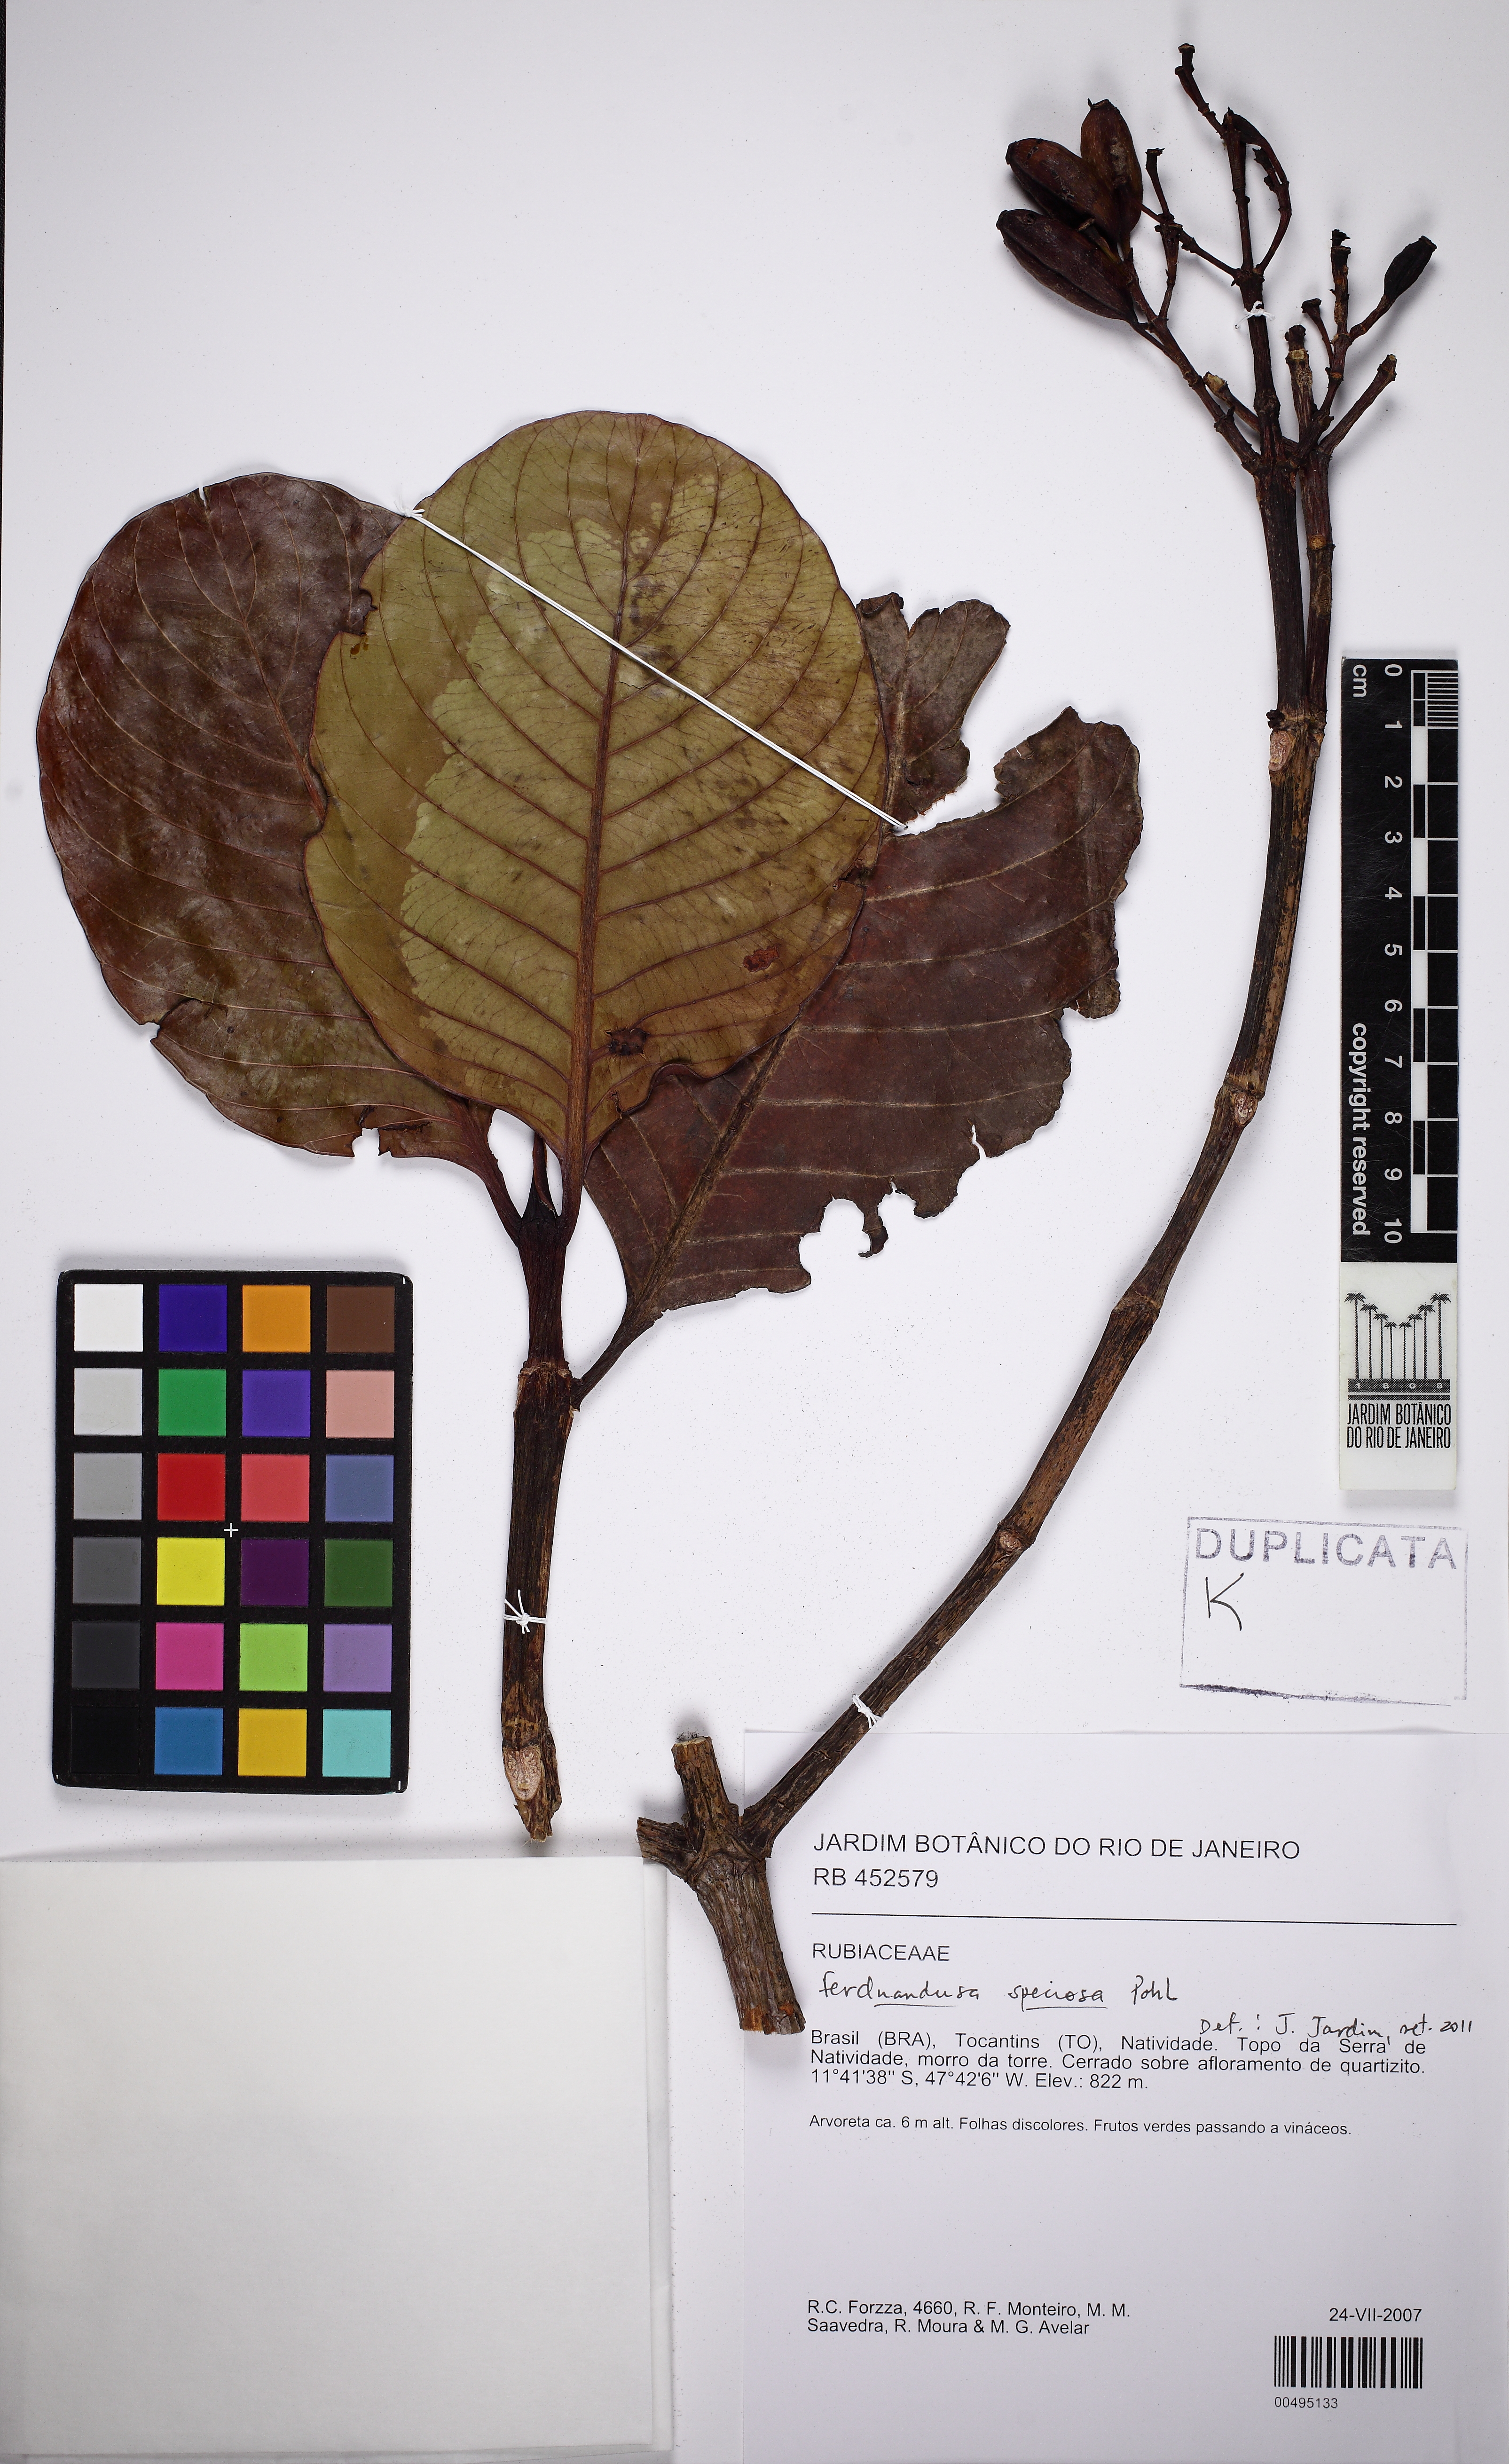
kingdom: Plantae
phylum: Tracheophyta
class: Magnoliopsida
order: Gentianales
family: Rubiaceae
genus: Ferdinandusa
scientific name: Ferdinandusa speciosa
